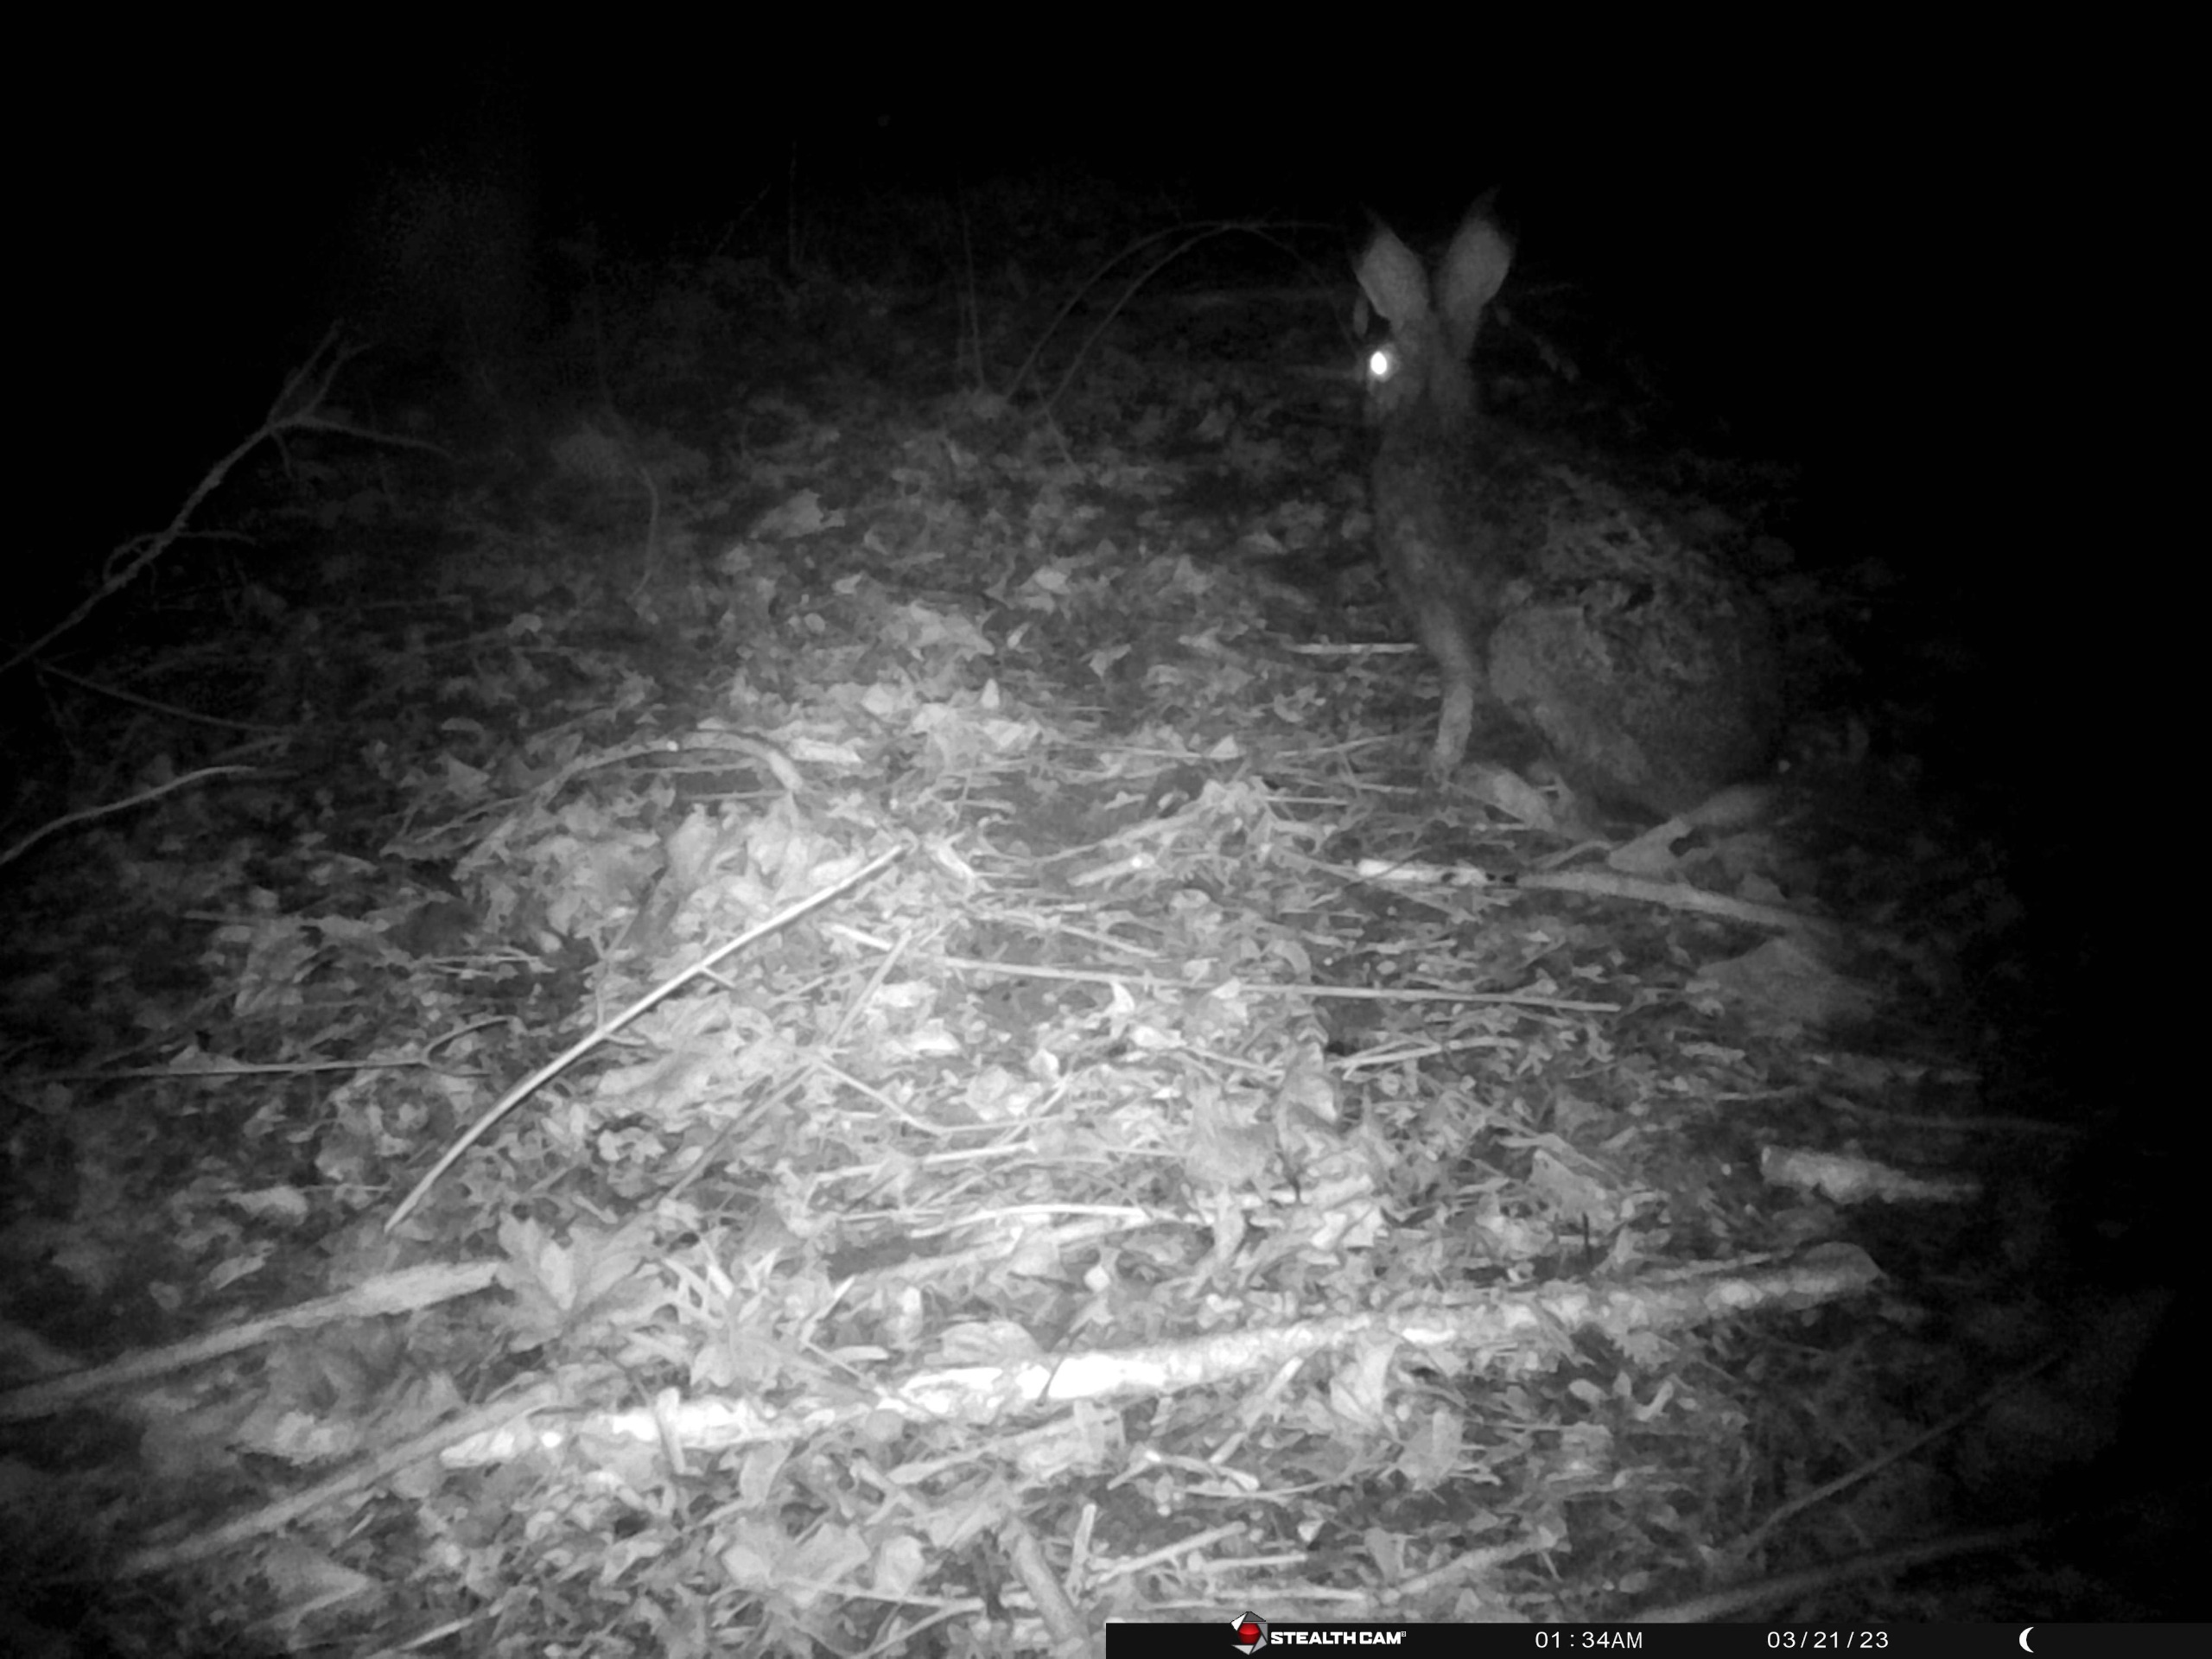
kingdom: Animalia
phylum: Chordata
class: Mammalia
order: Lagomorpha
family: Leporidae
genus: Lepus
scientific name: Lepus europaeus
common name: Hare
